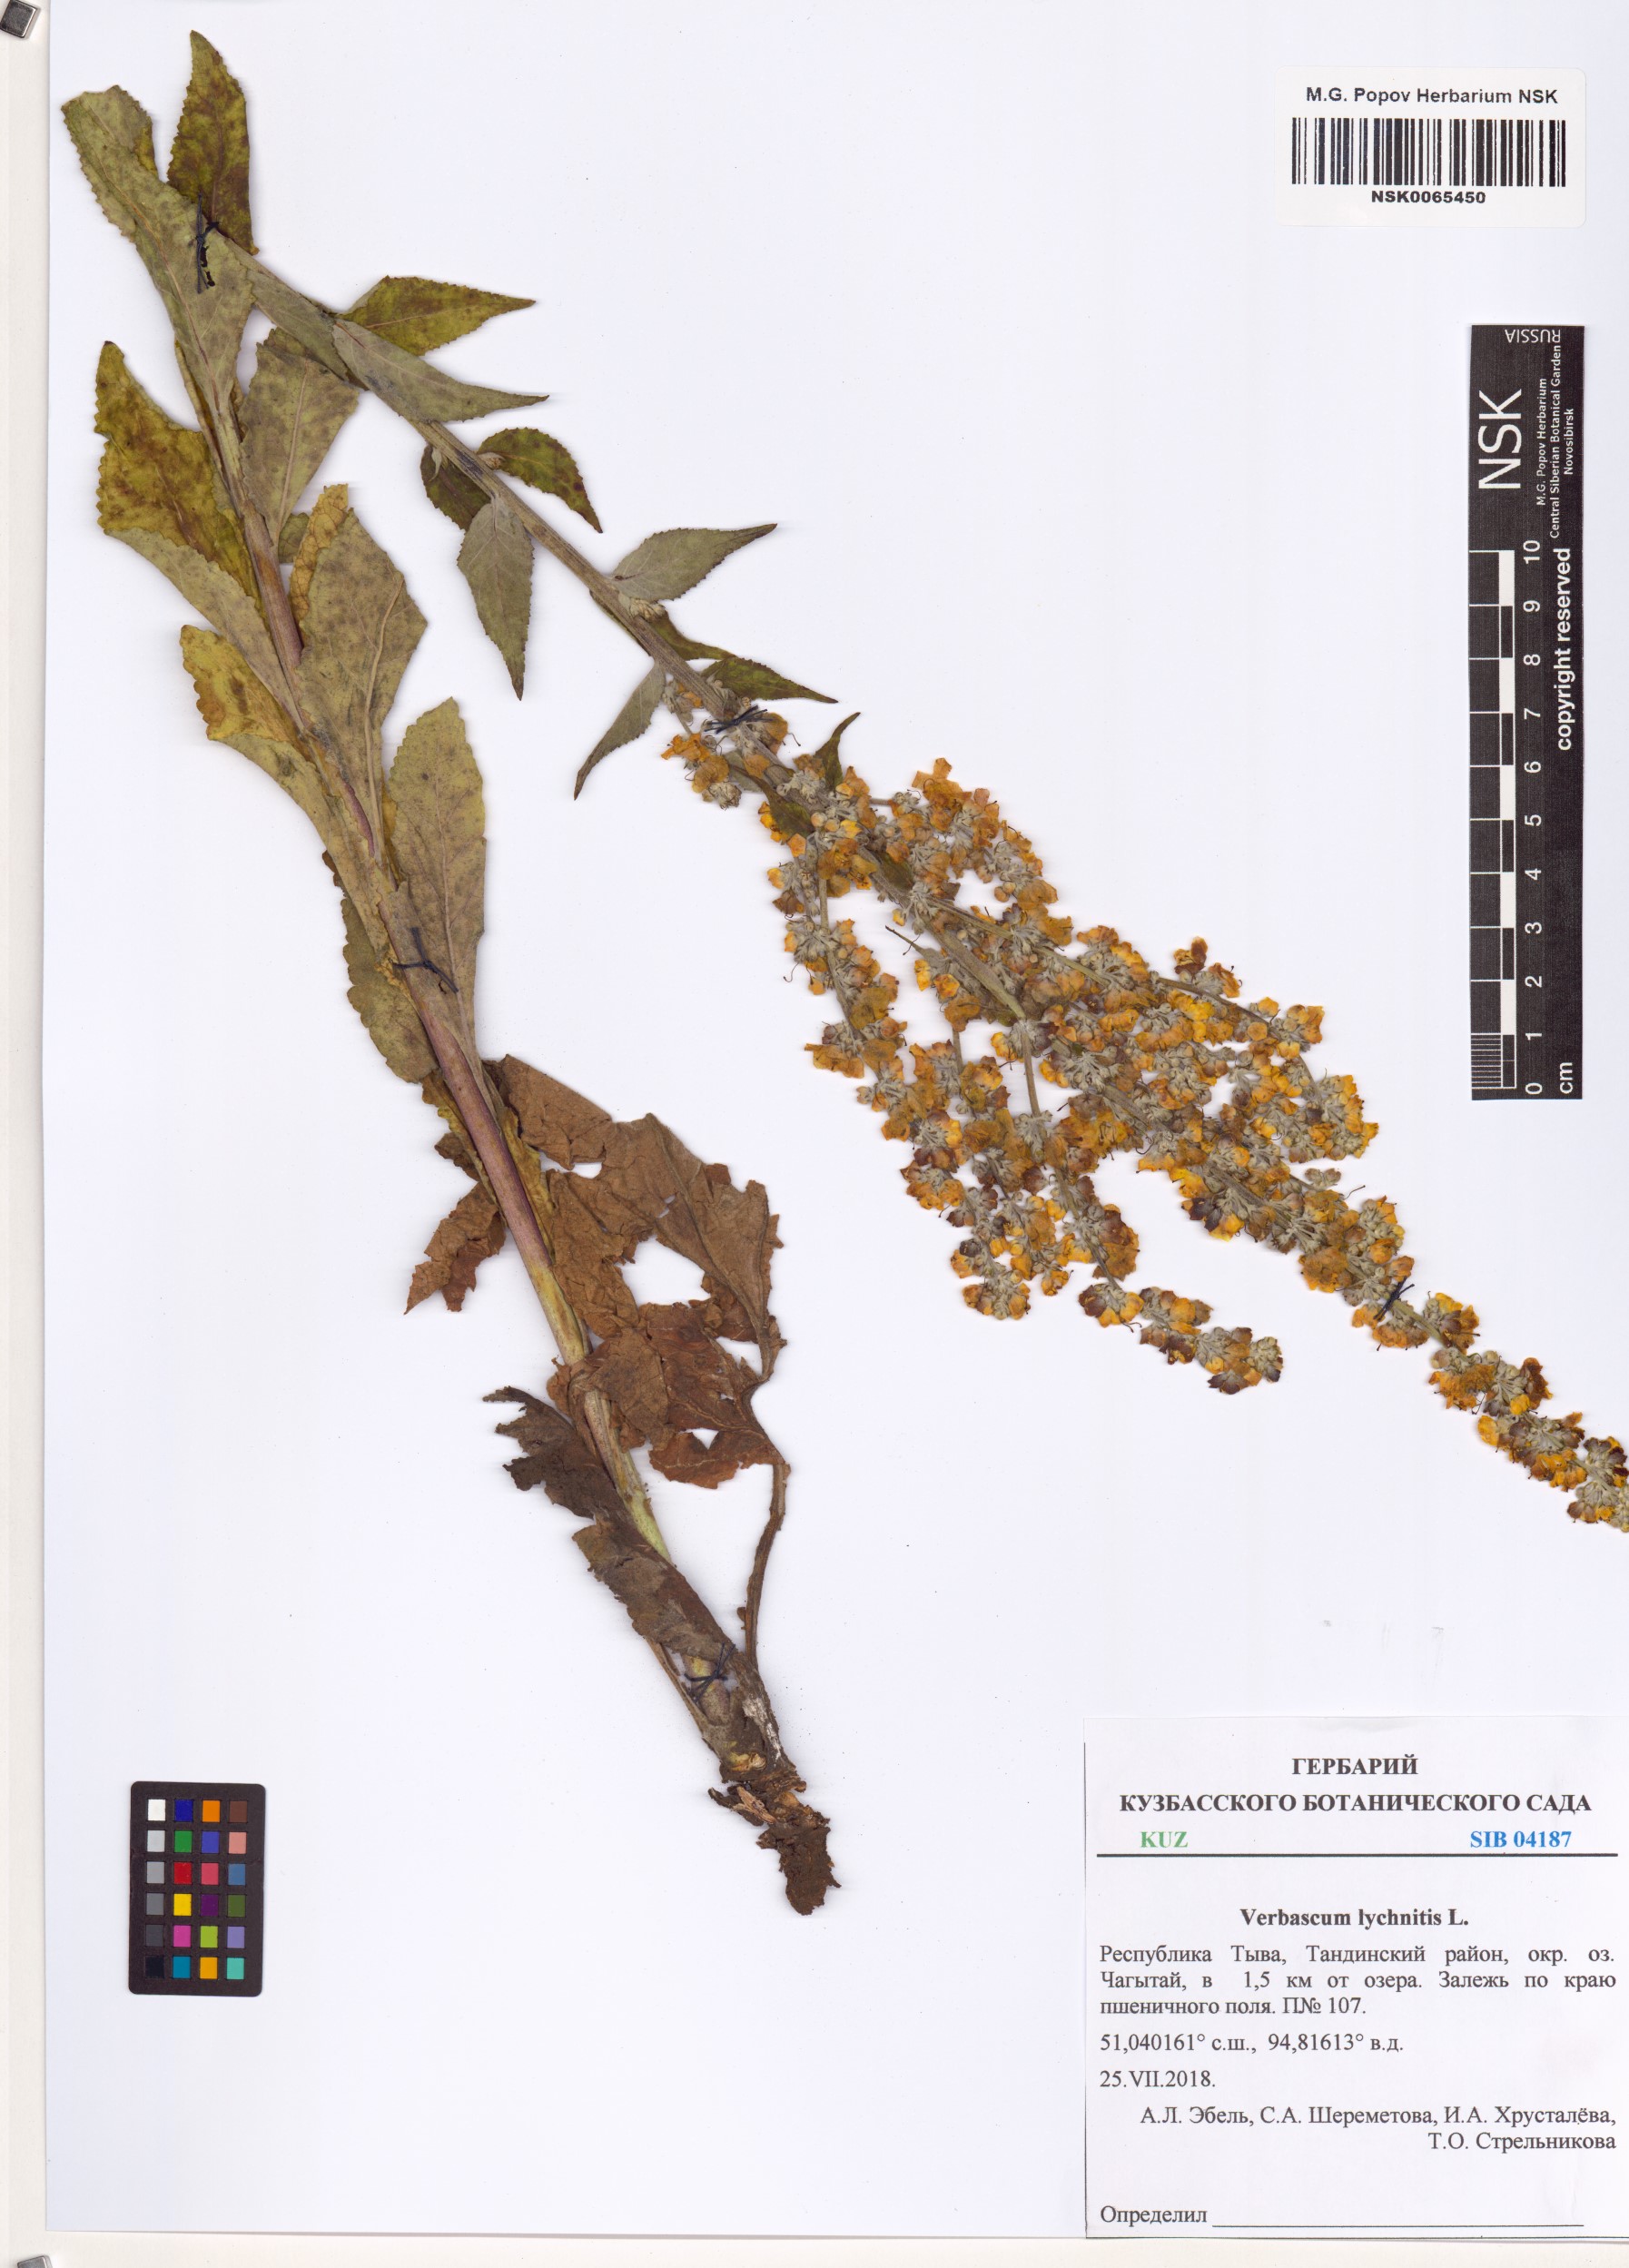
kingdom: Plantae
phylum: Tracheophyta
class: Magnoliopsida
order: Lamiales
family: Scrophulariaceae
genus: Verbascum
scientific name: Verbascum lychnitis
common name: White mullein
